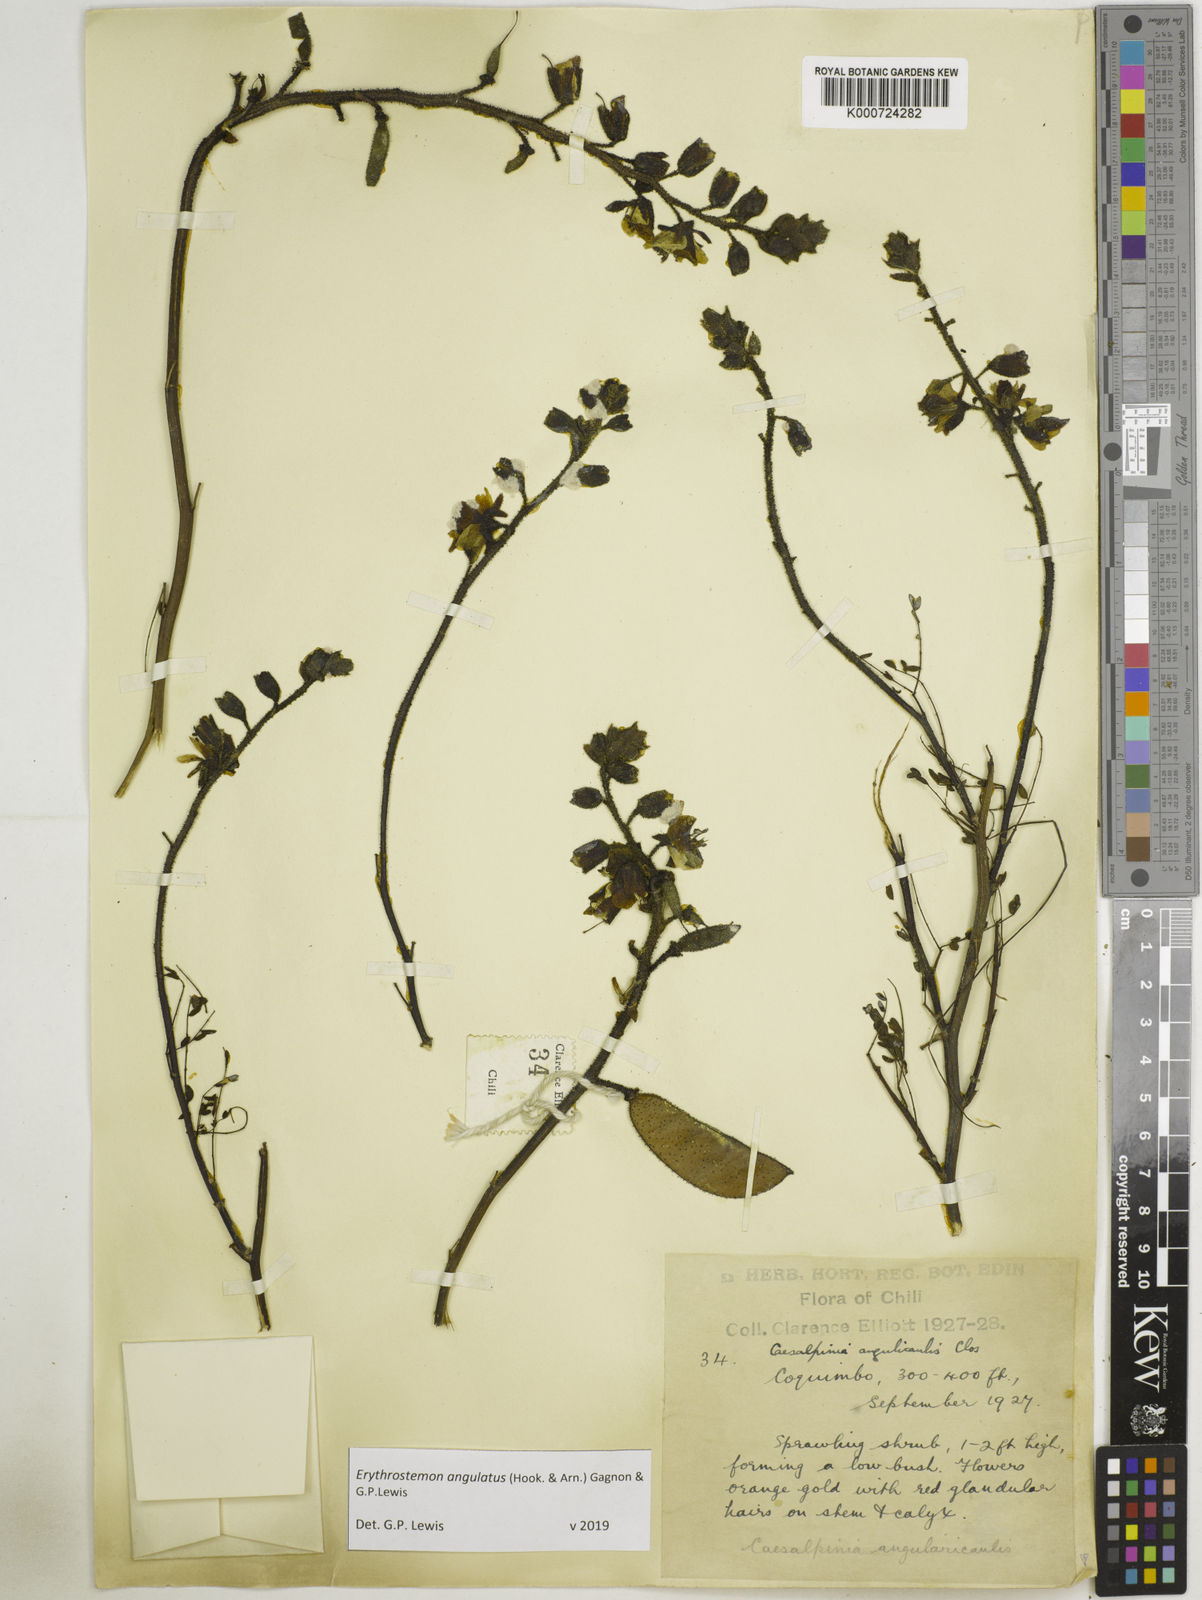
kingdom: Plantae
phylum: Tracheophyta
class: Magnoliopsida
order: Fabales
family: Fabaceae
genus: Caesalpinia
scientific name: Caesalpinia
